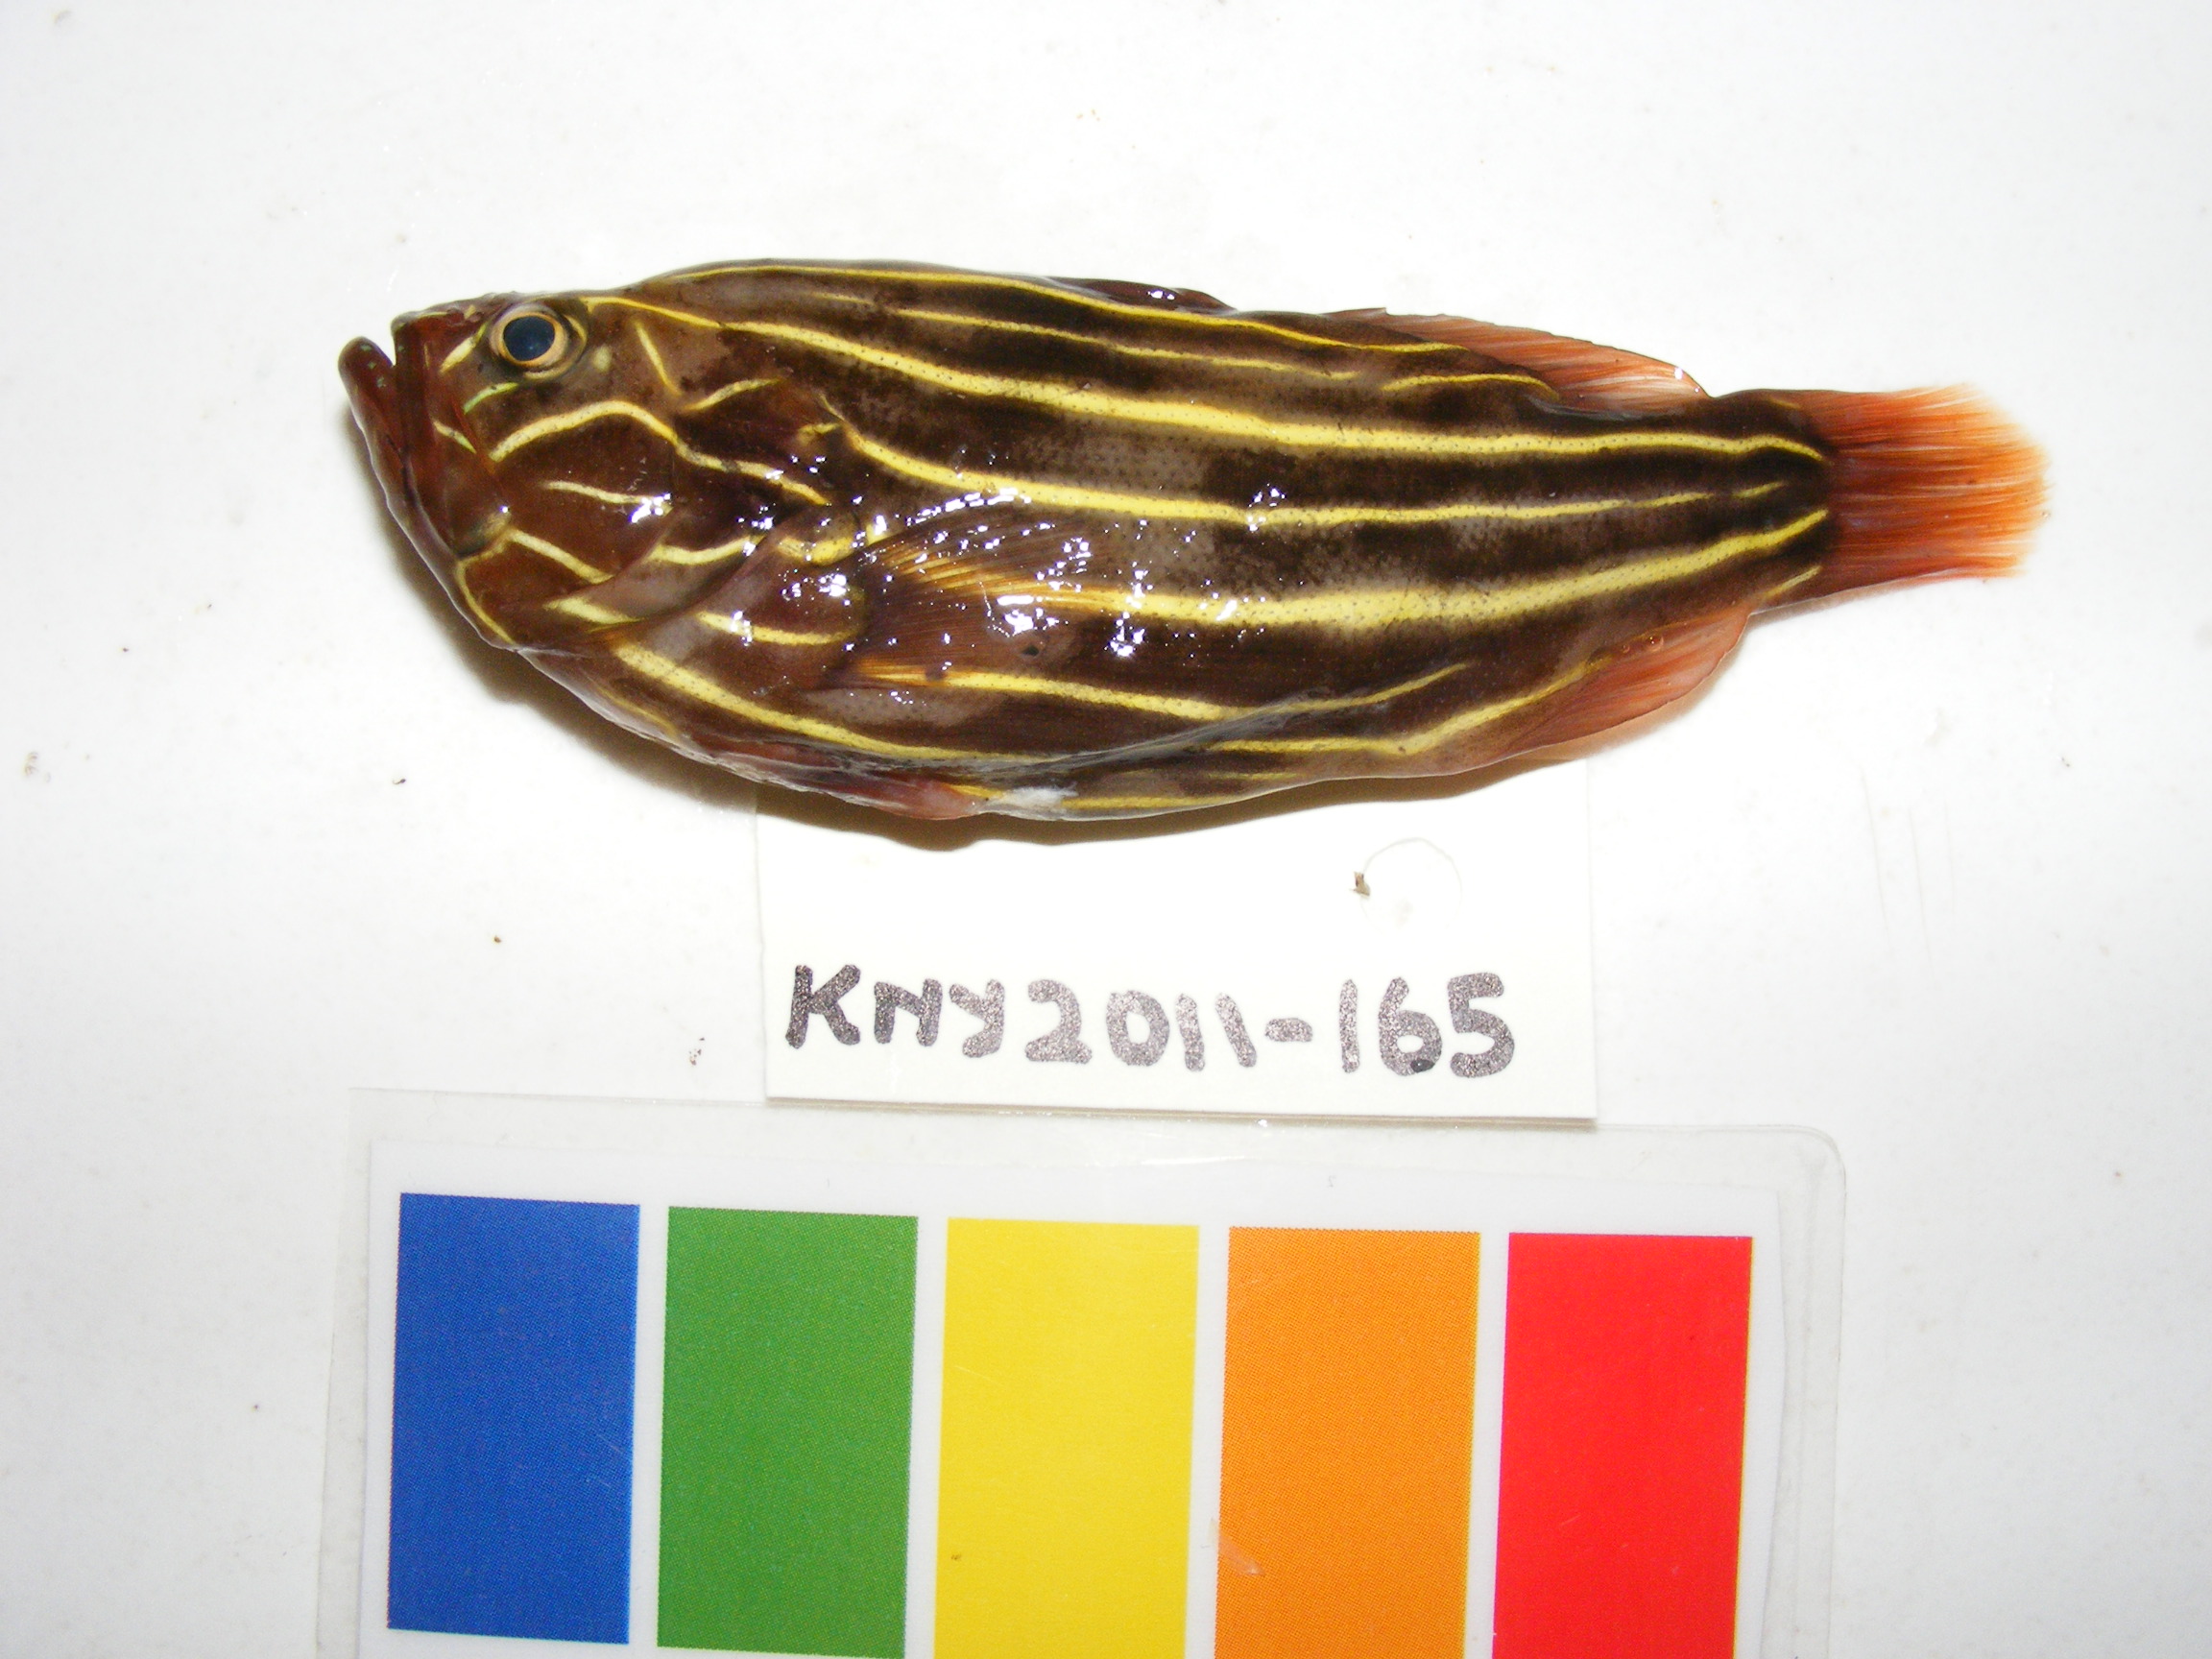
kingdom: Animalia
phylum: Chordata
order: Perciformes
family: Serranidae
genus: Grammistes
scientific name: Grammistes sexlineatus
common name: Sixline soapfish
